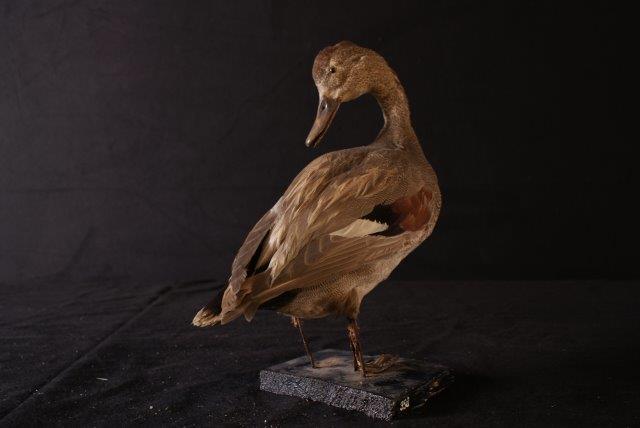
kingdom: Animalia
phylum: Chordata
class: Aves
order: Anseriformes
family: Anatidae
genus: Mareca
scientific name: Mareca strepera
